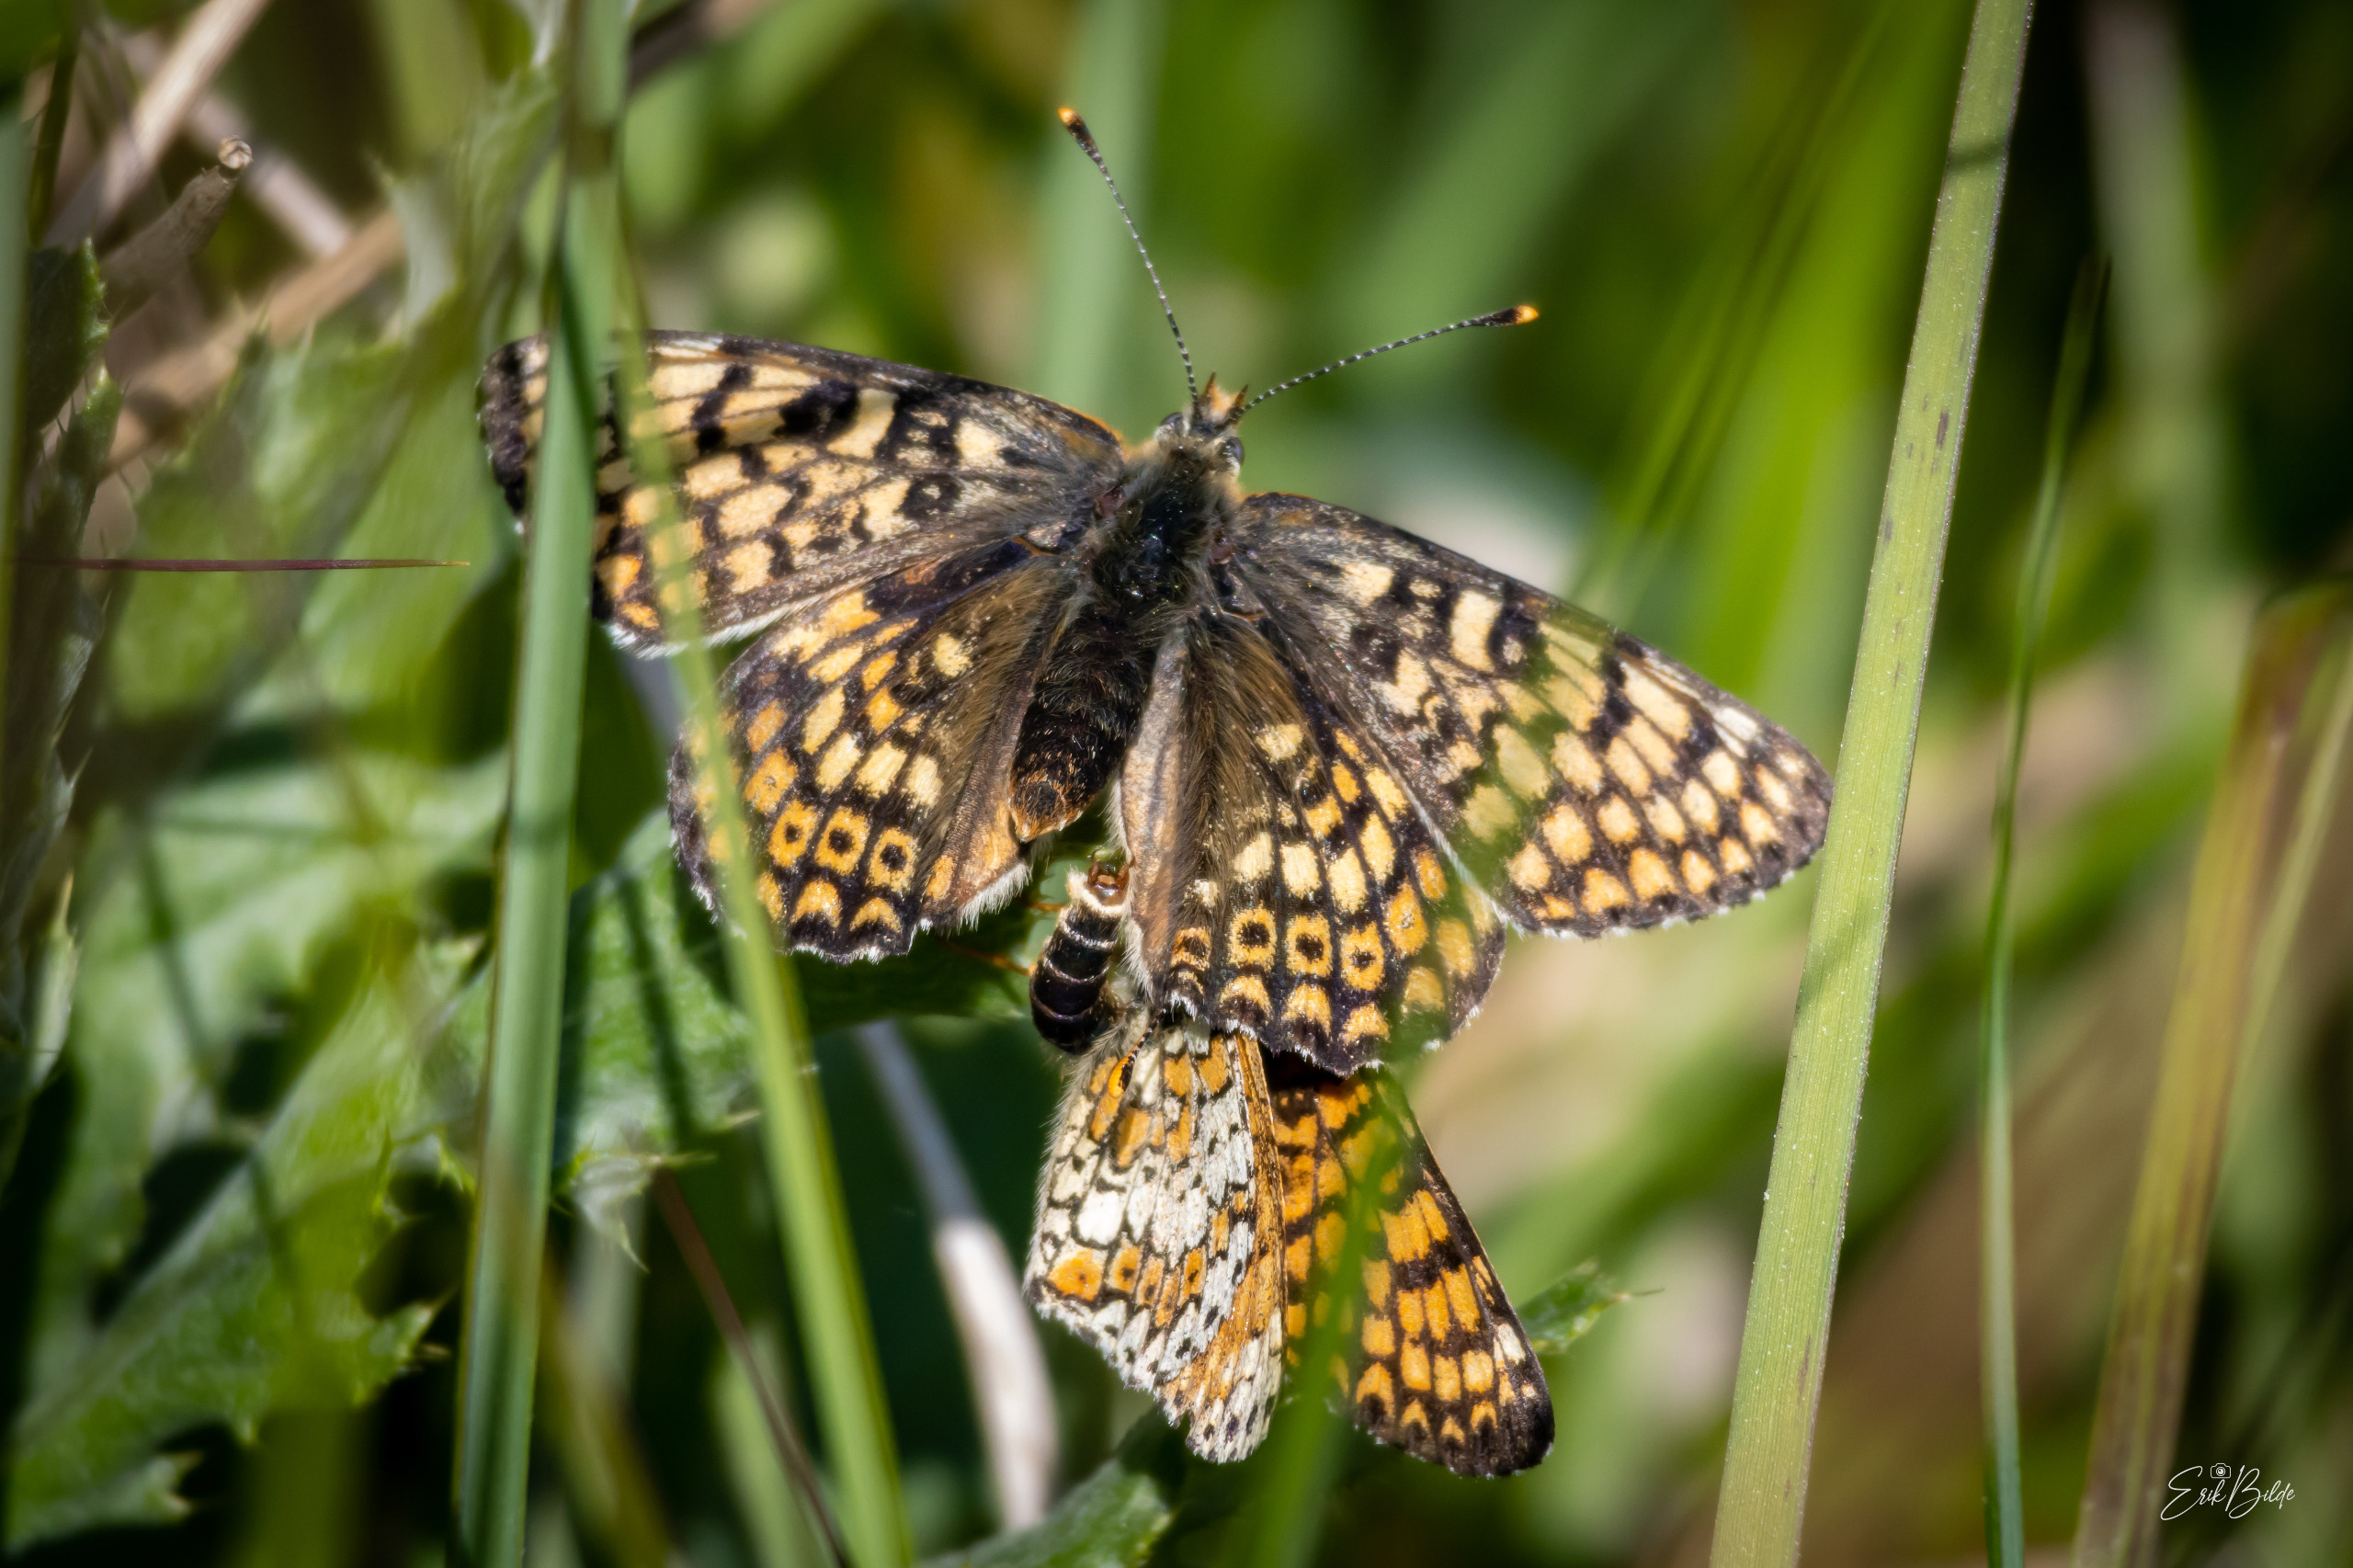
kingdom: Animalia
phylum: Arthropoda
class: Insecta
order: Lepidoptera
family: Nymphalidae
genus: Melitaea
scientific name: Melitaea cinxia
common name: Okkergul pletvinge
